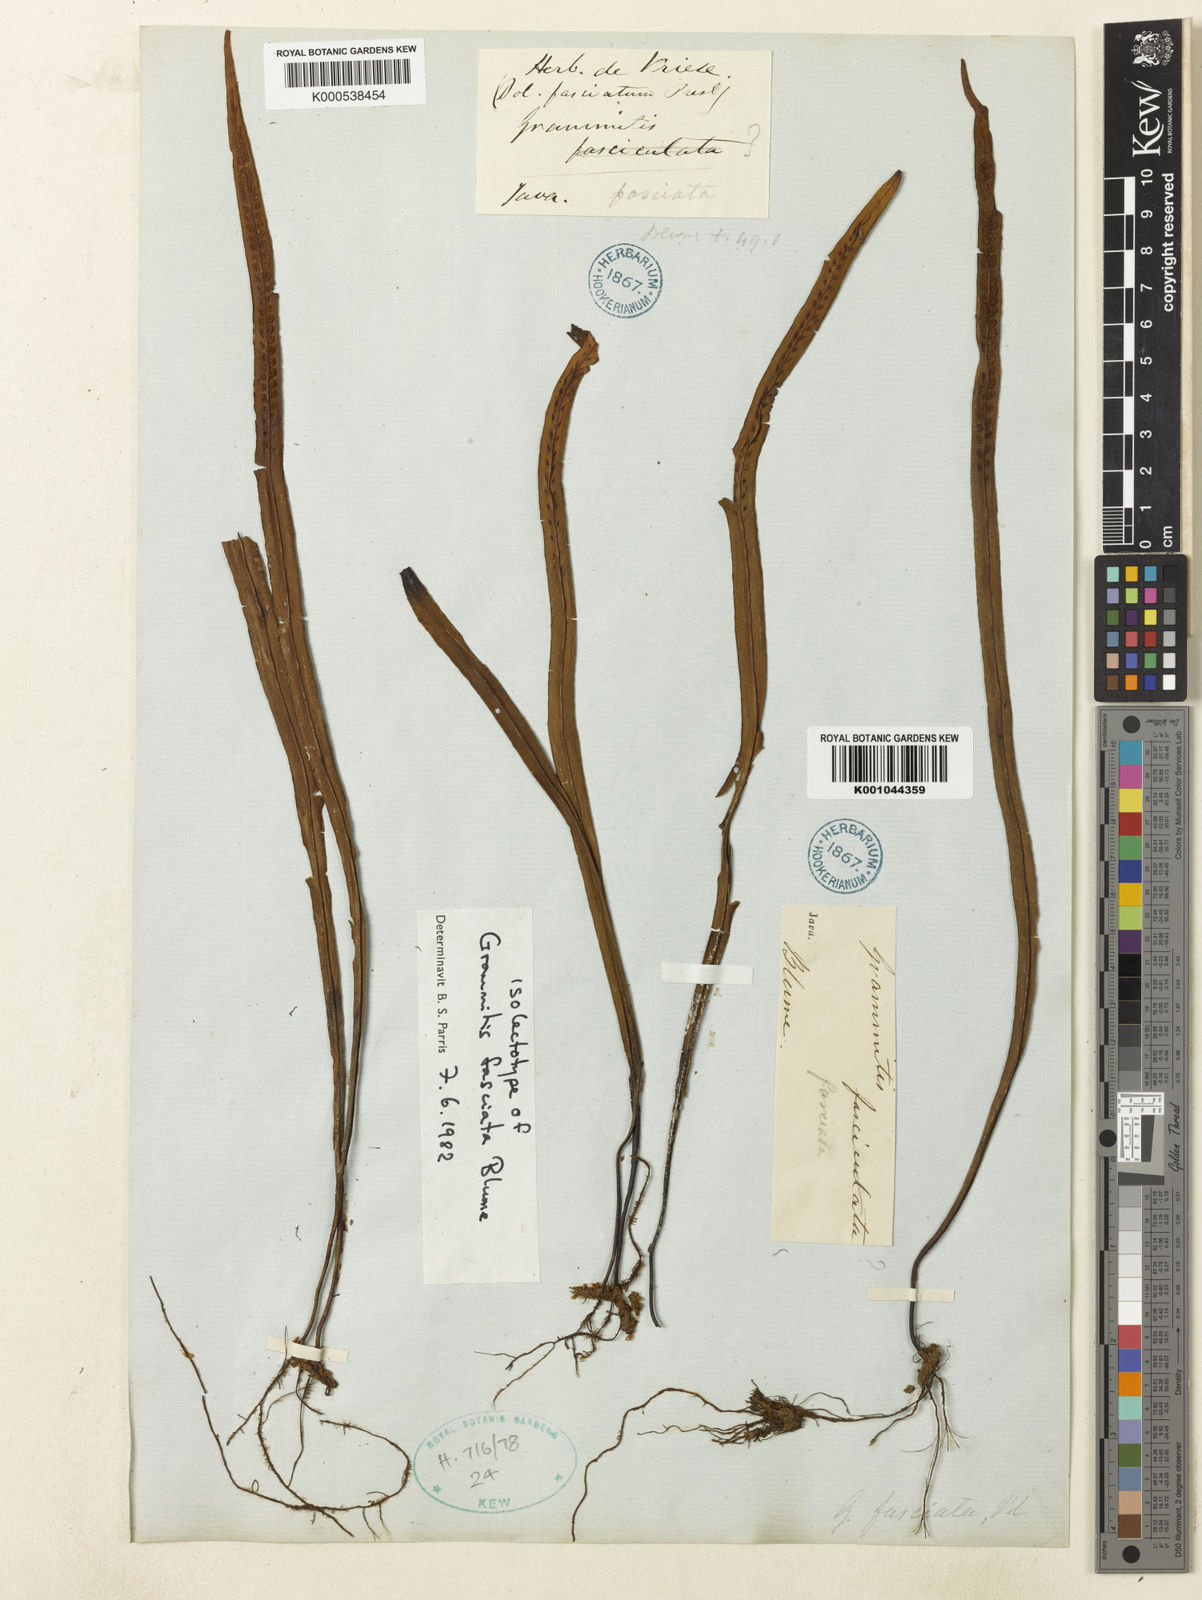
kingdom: Plantae
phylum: Tracheophyta
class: Polypodiopsida
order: Polypodiales
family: Polypodiaceae
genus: Oreogrammitis
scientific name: Oreogrammitis fasciata
